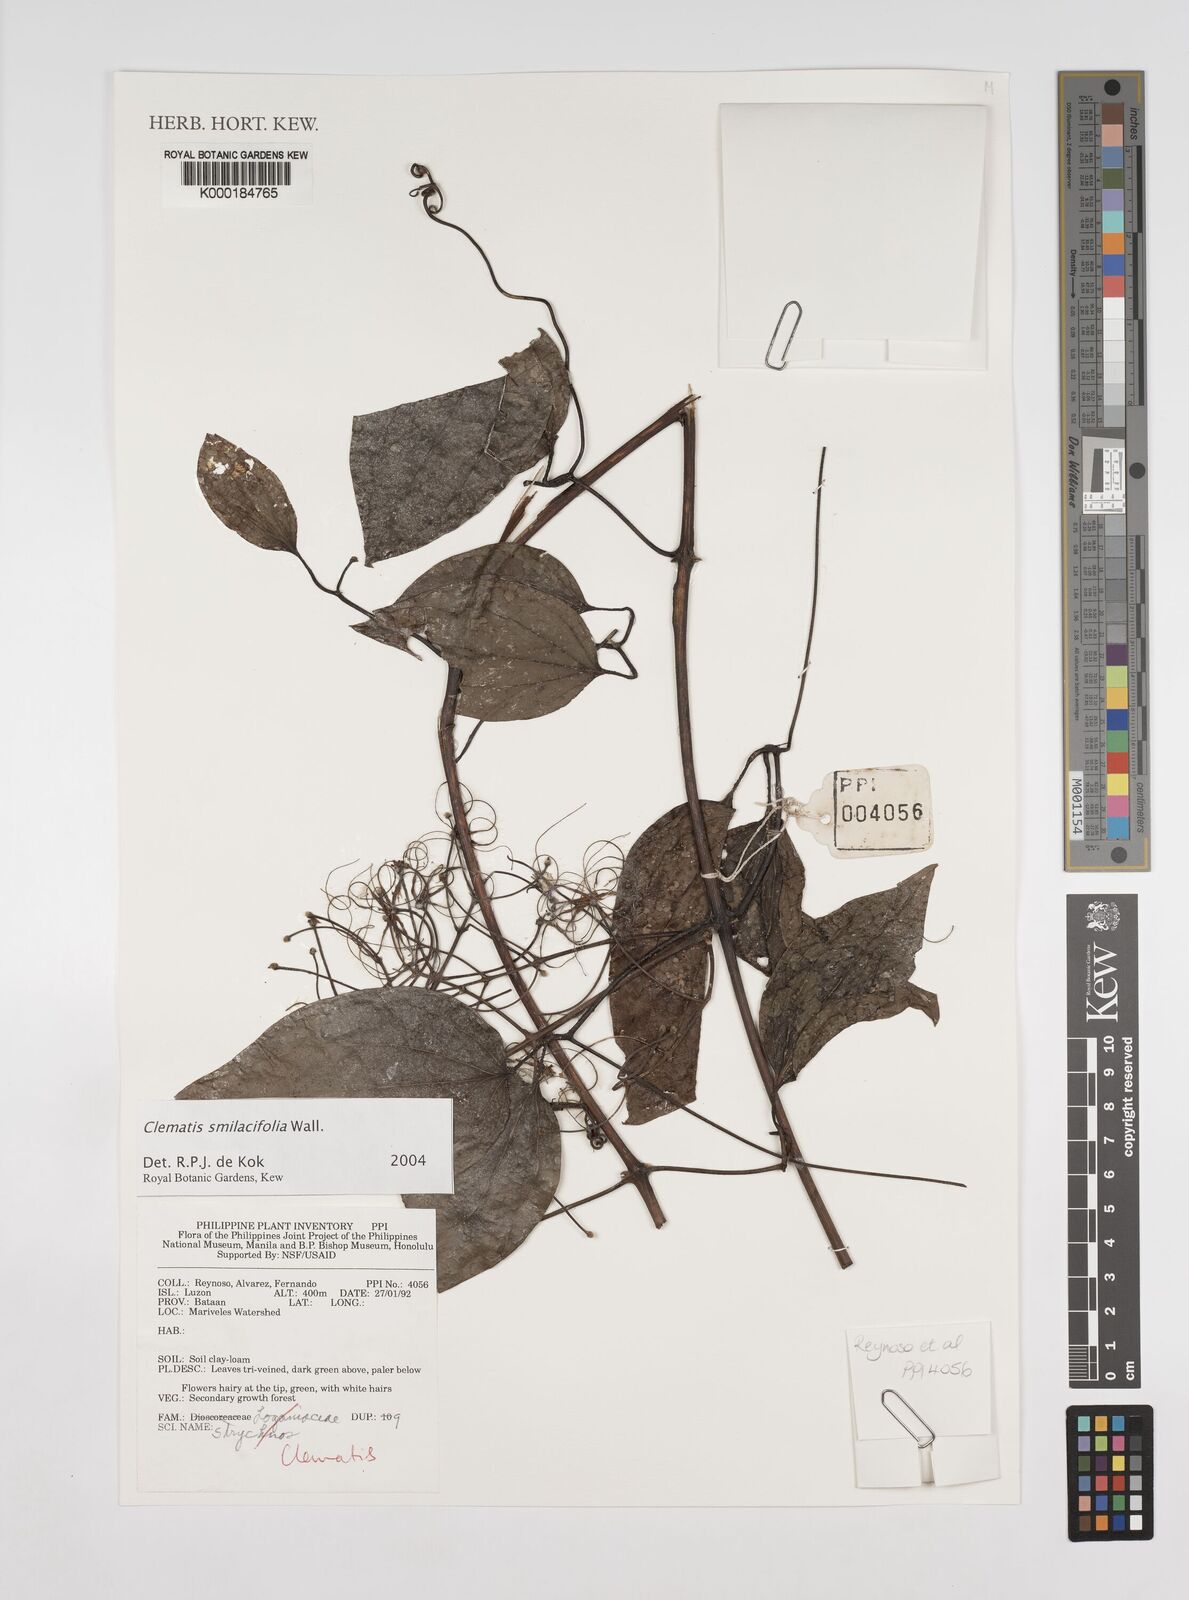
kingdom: Plantae
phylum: Tracheophyta
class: Magnoliopsida
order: Ranunculales
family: Ranunculaceae
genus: Clematis
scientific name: Clematis smilacifolia
